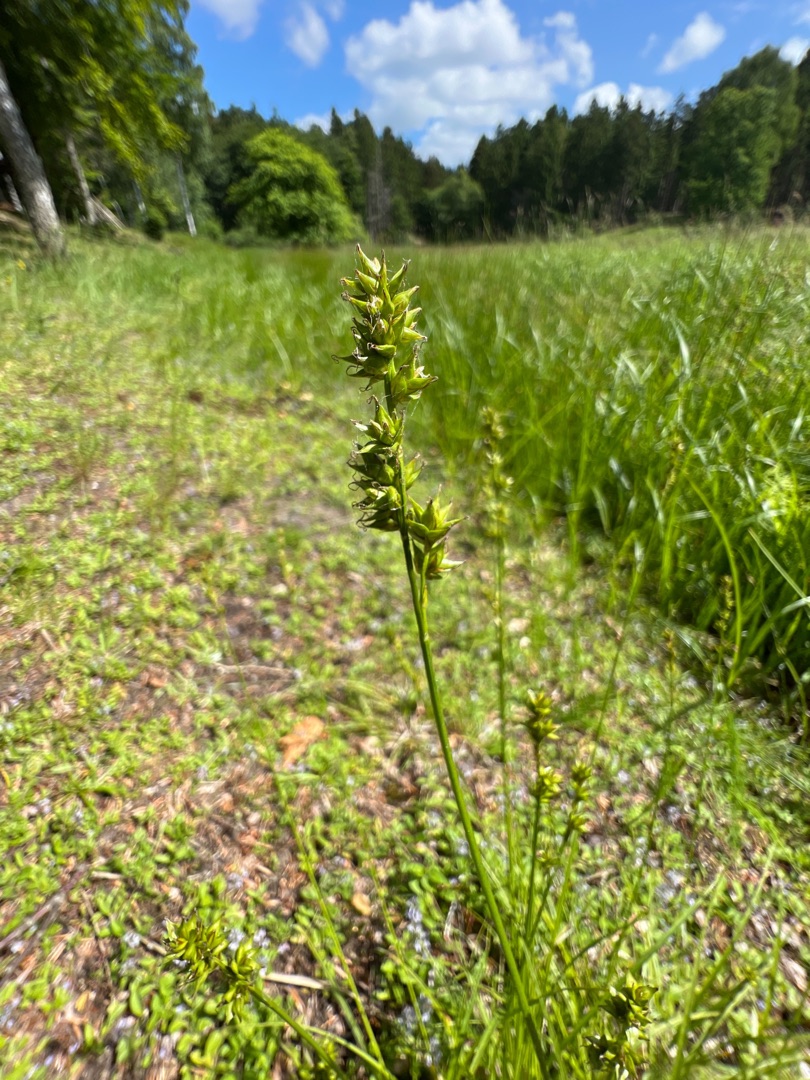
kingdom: Plantae
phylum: Tracheophyta
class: Liliopsida
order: Poales
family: Cyperaceae
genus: Carex
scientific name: Carex divulsa
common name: Mellembrudt star
